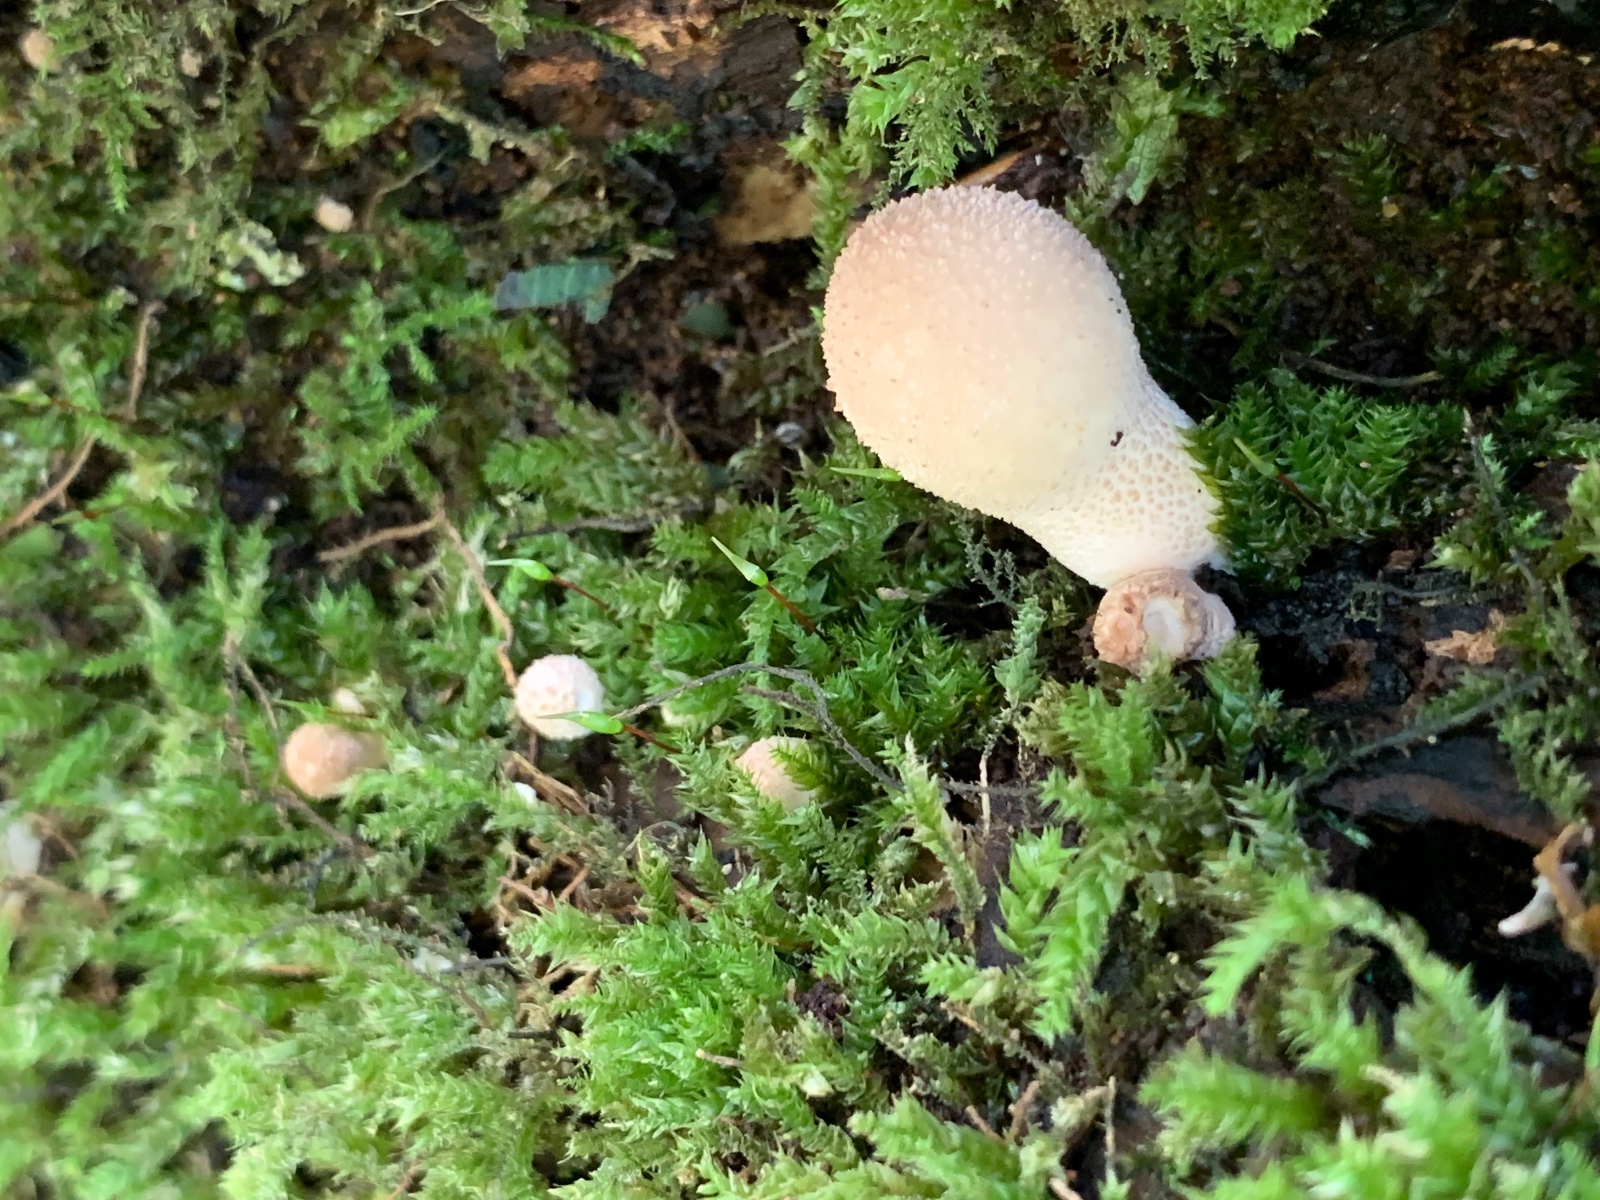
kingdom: Fungi
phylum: Basidiomycota
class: Agaricomycetes
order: Agaricales
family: Lycoperdaceae
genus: Apioperdon
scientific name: Apioperdon pyriforme
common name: pære-støvbold
